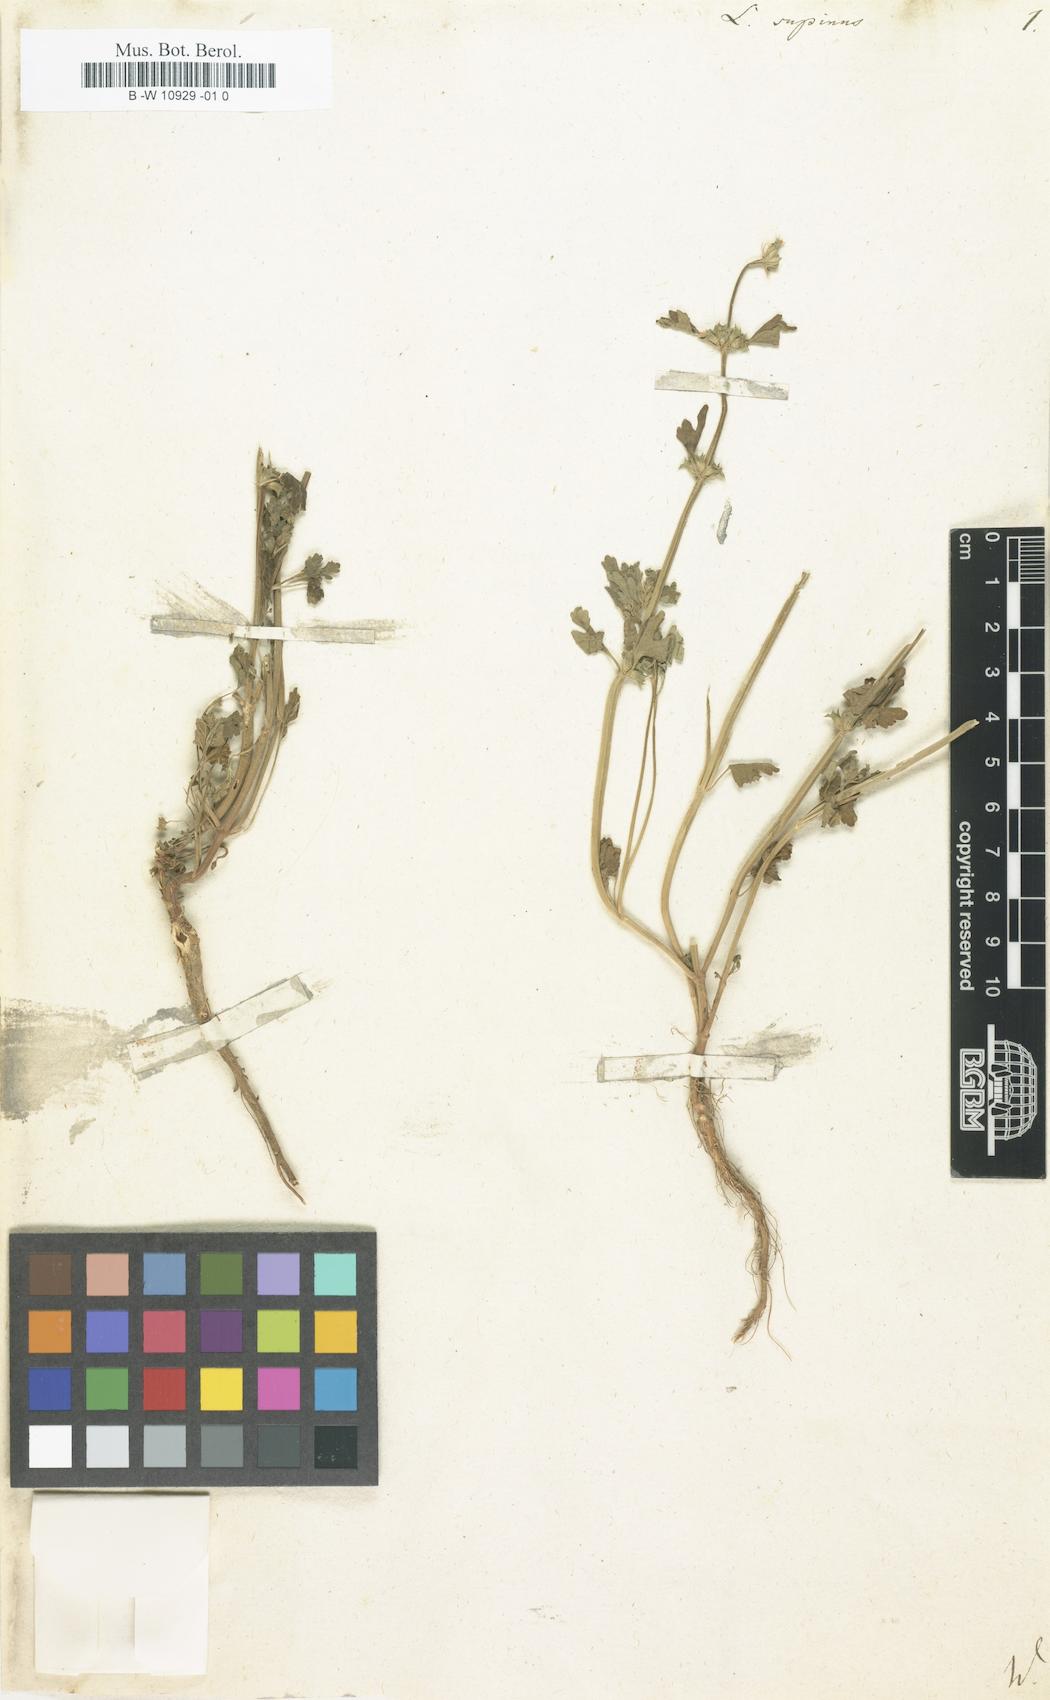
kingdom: Plantae
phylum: Tracheophyta
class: Magnoliopsida
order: Lamiales
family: Lamiaceae
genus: Lagopsis
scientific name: Lagopsis supina
